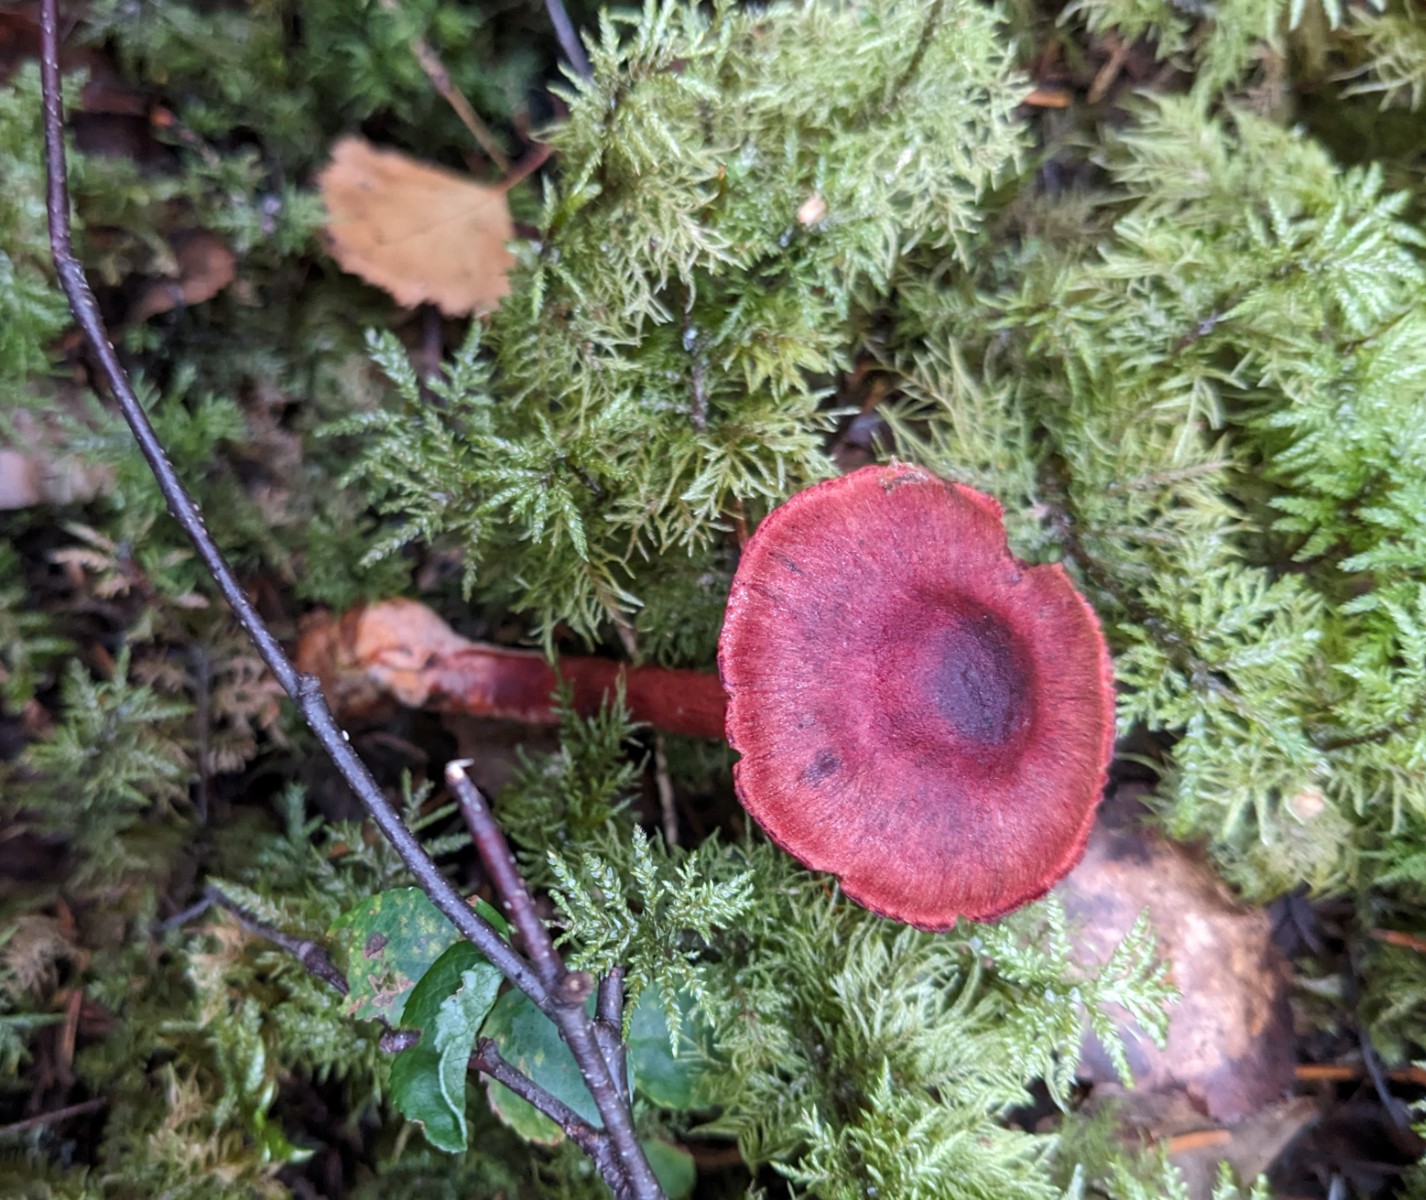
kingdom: Fungi
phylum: Basidiomycota
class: Agaricomycetes
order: Agaricales
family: Cortinariaceae
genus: Cortinarius
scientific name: Cortinarius sanguineus
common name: blodrød slørhat
